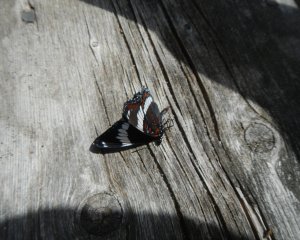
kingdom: Animalia
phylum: Arthropoda
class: Insecta
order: Lepidoptera
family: Nymphalidae
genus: Limenitis
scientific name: Limenitis arthemis
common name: Red-spotted Admiral
